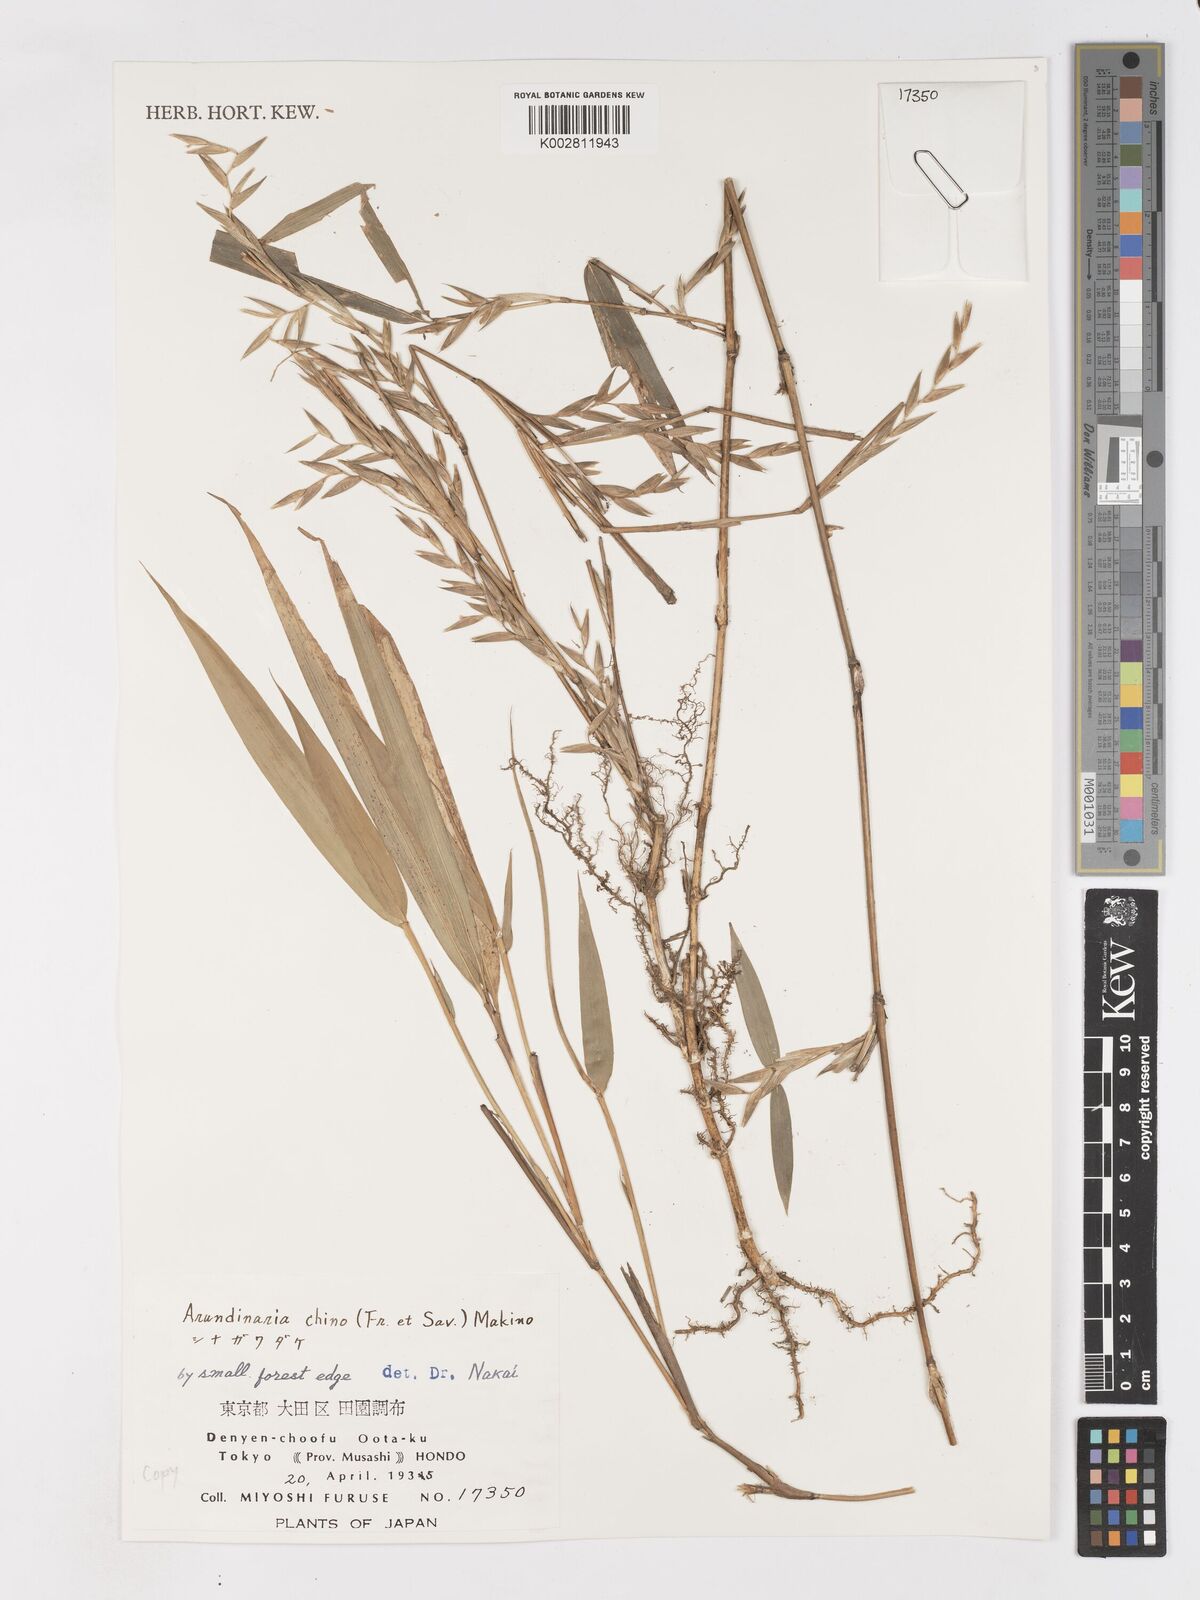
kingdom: Plantae
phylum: Tracheophyta
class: Liliopsida
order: Poales
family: Poaceae
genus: Pleioblastus
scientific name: Pleioblastus argenteostriatus
